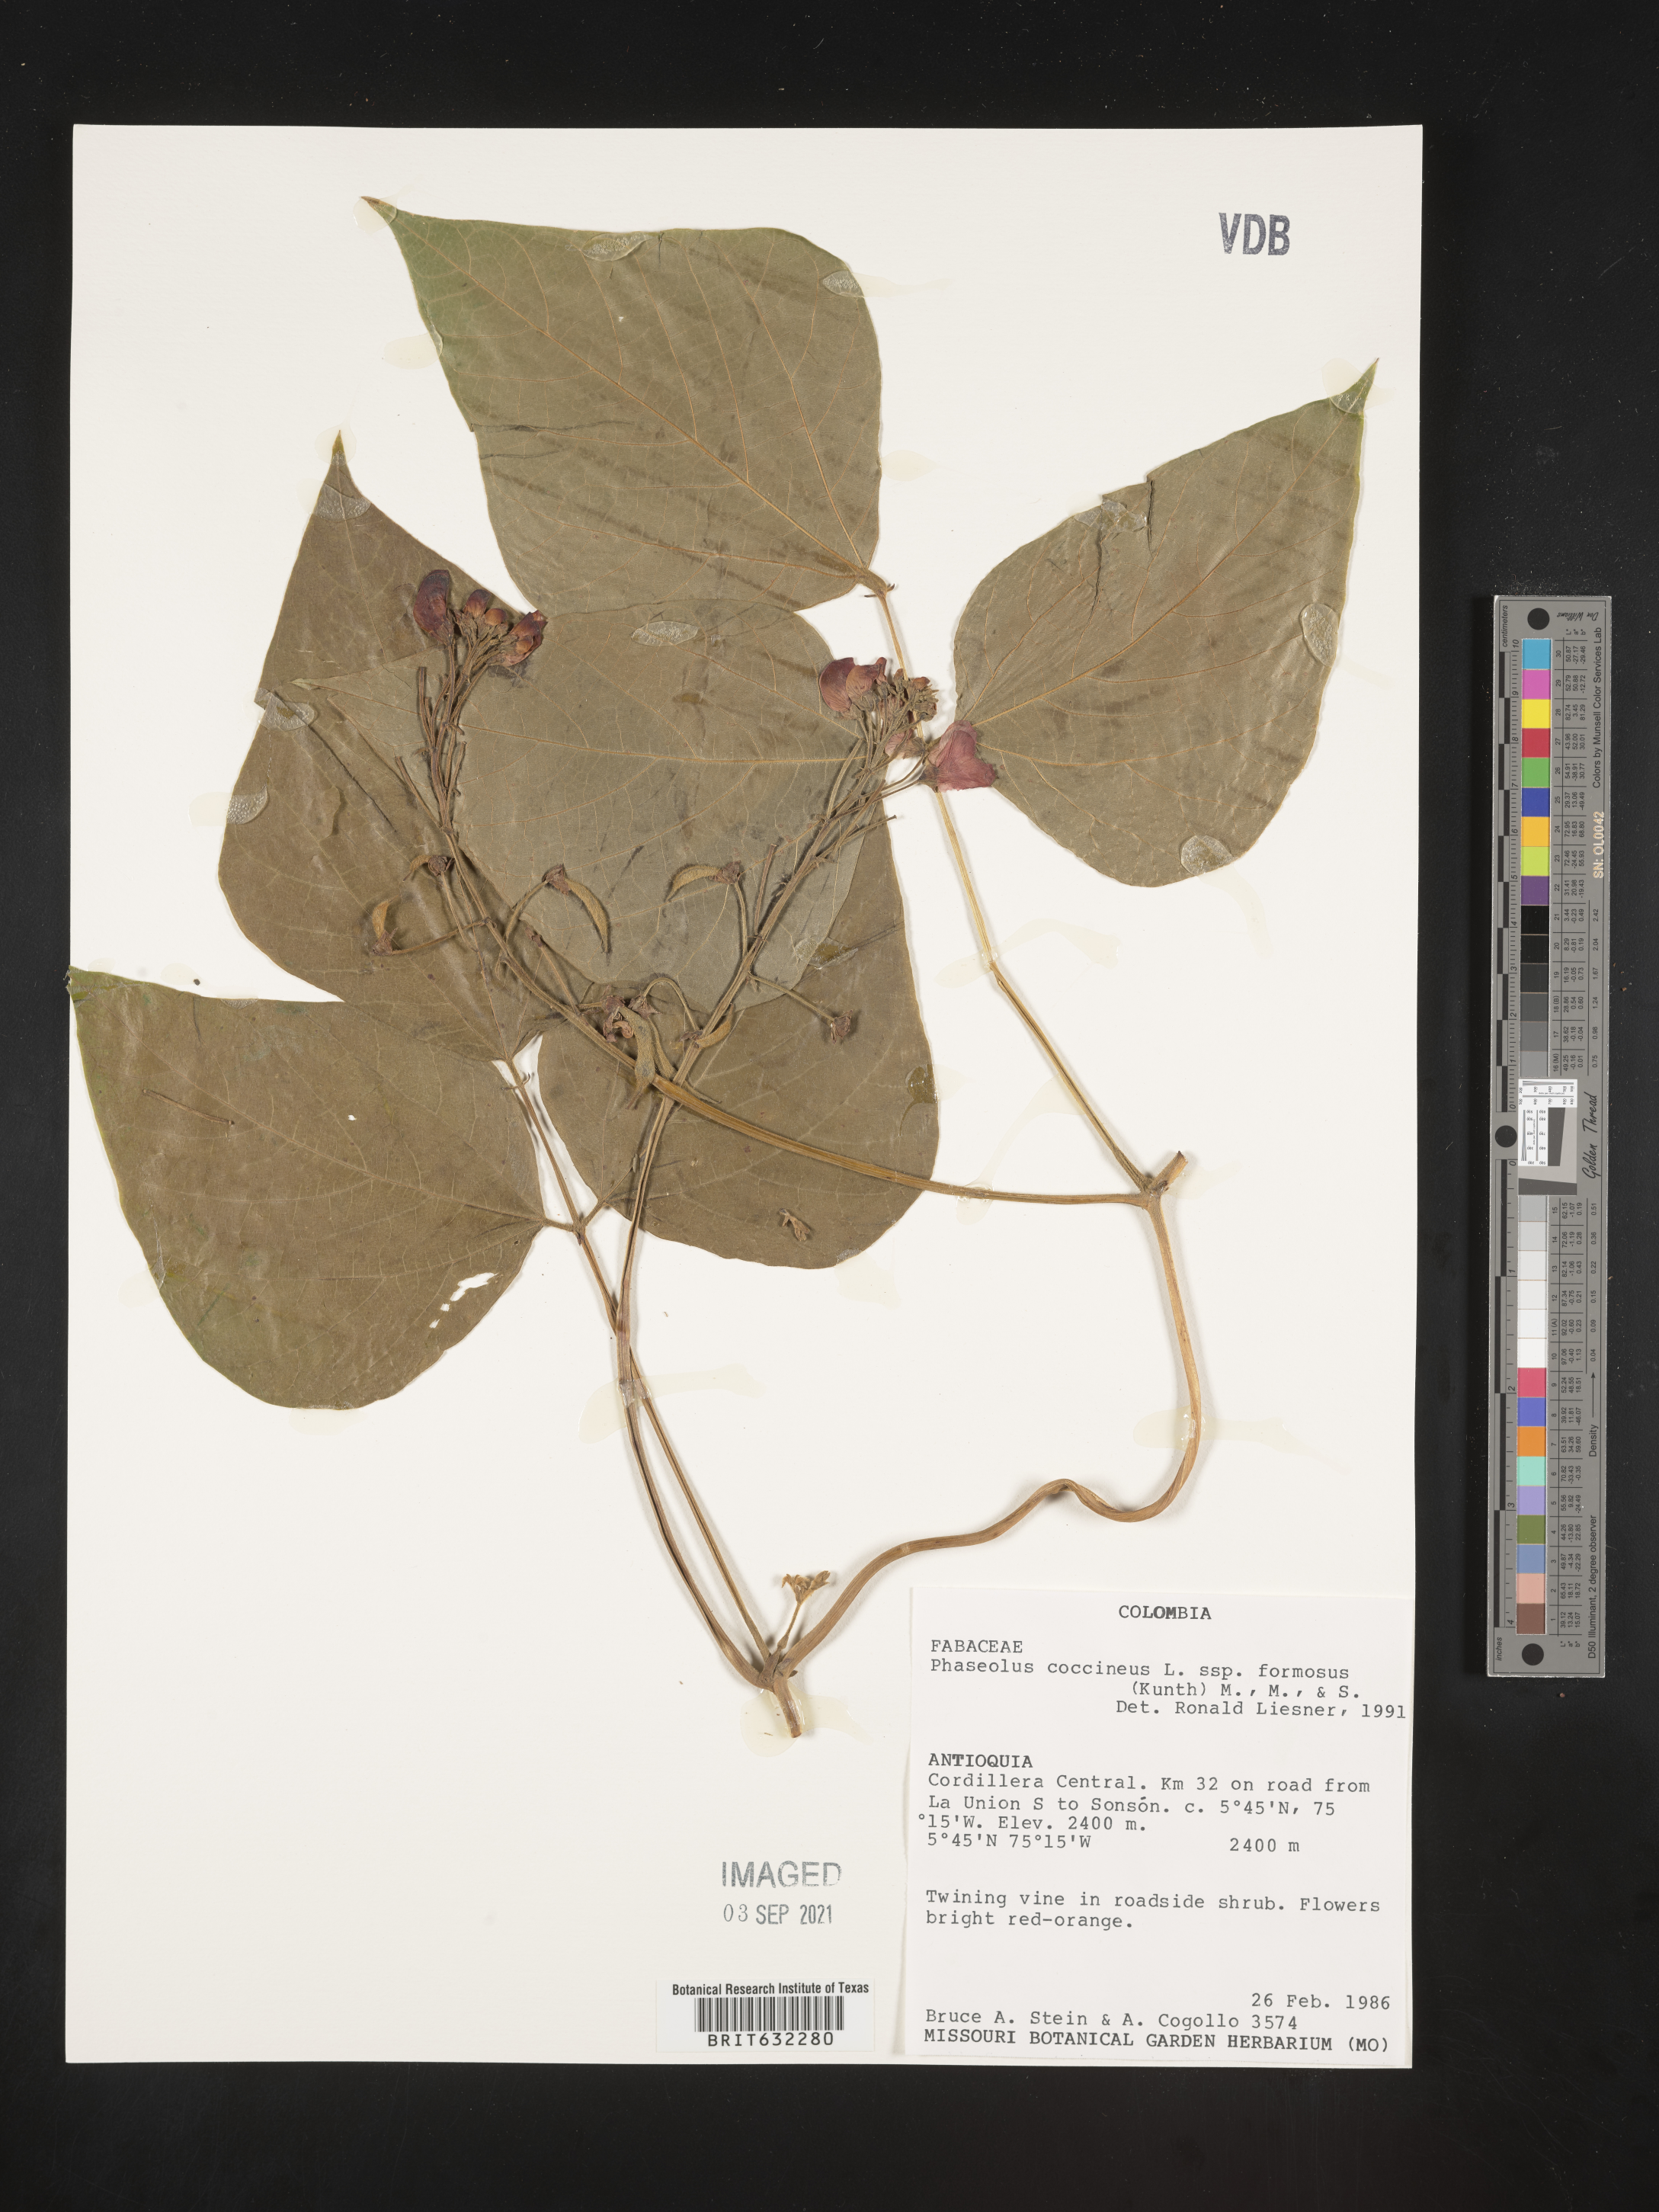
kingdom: Plantae
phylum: Tracheophyta
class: Magnoliopsida
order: Fabales
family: Fabaceae
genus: Phaseolus
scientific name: Phaseolus
